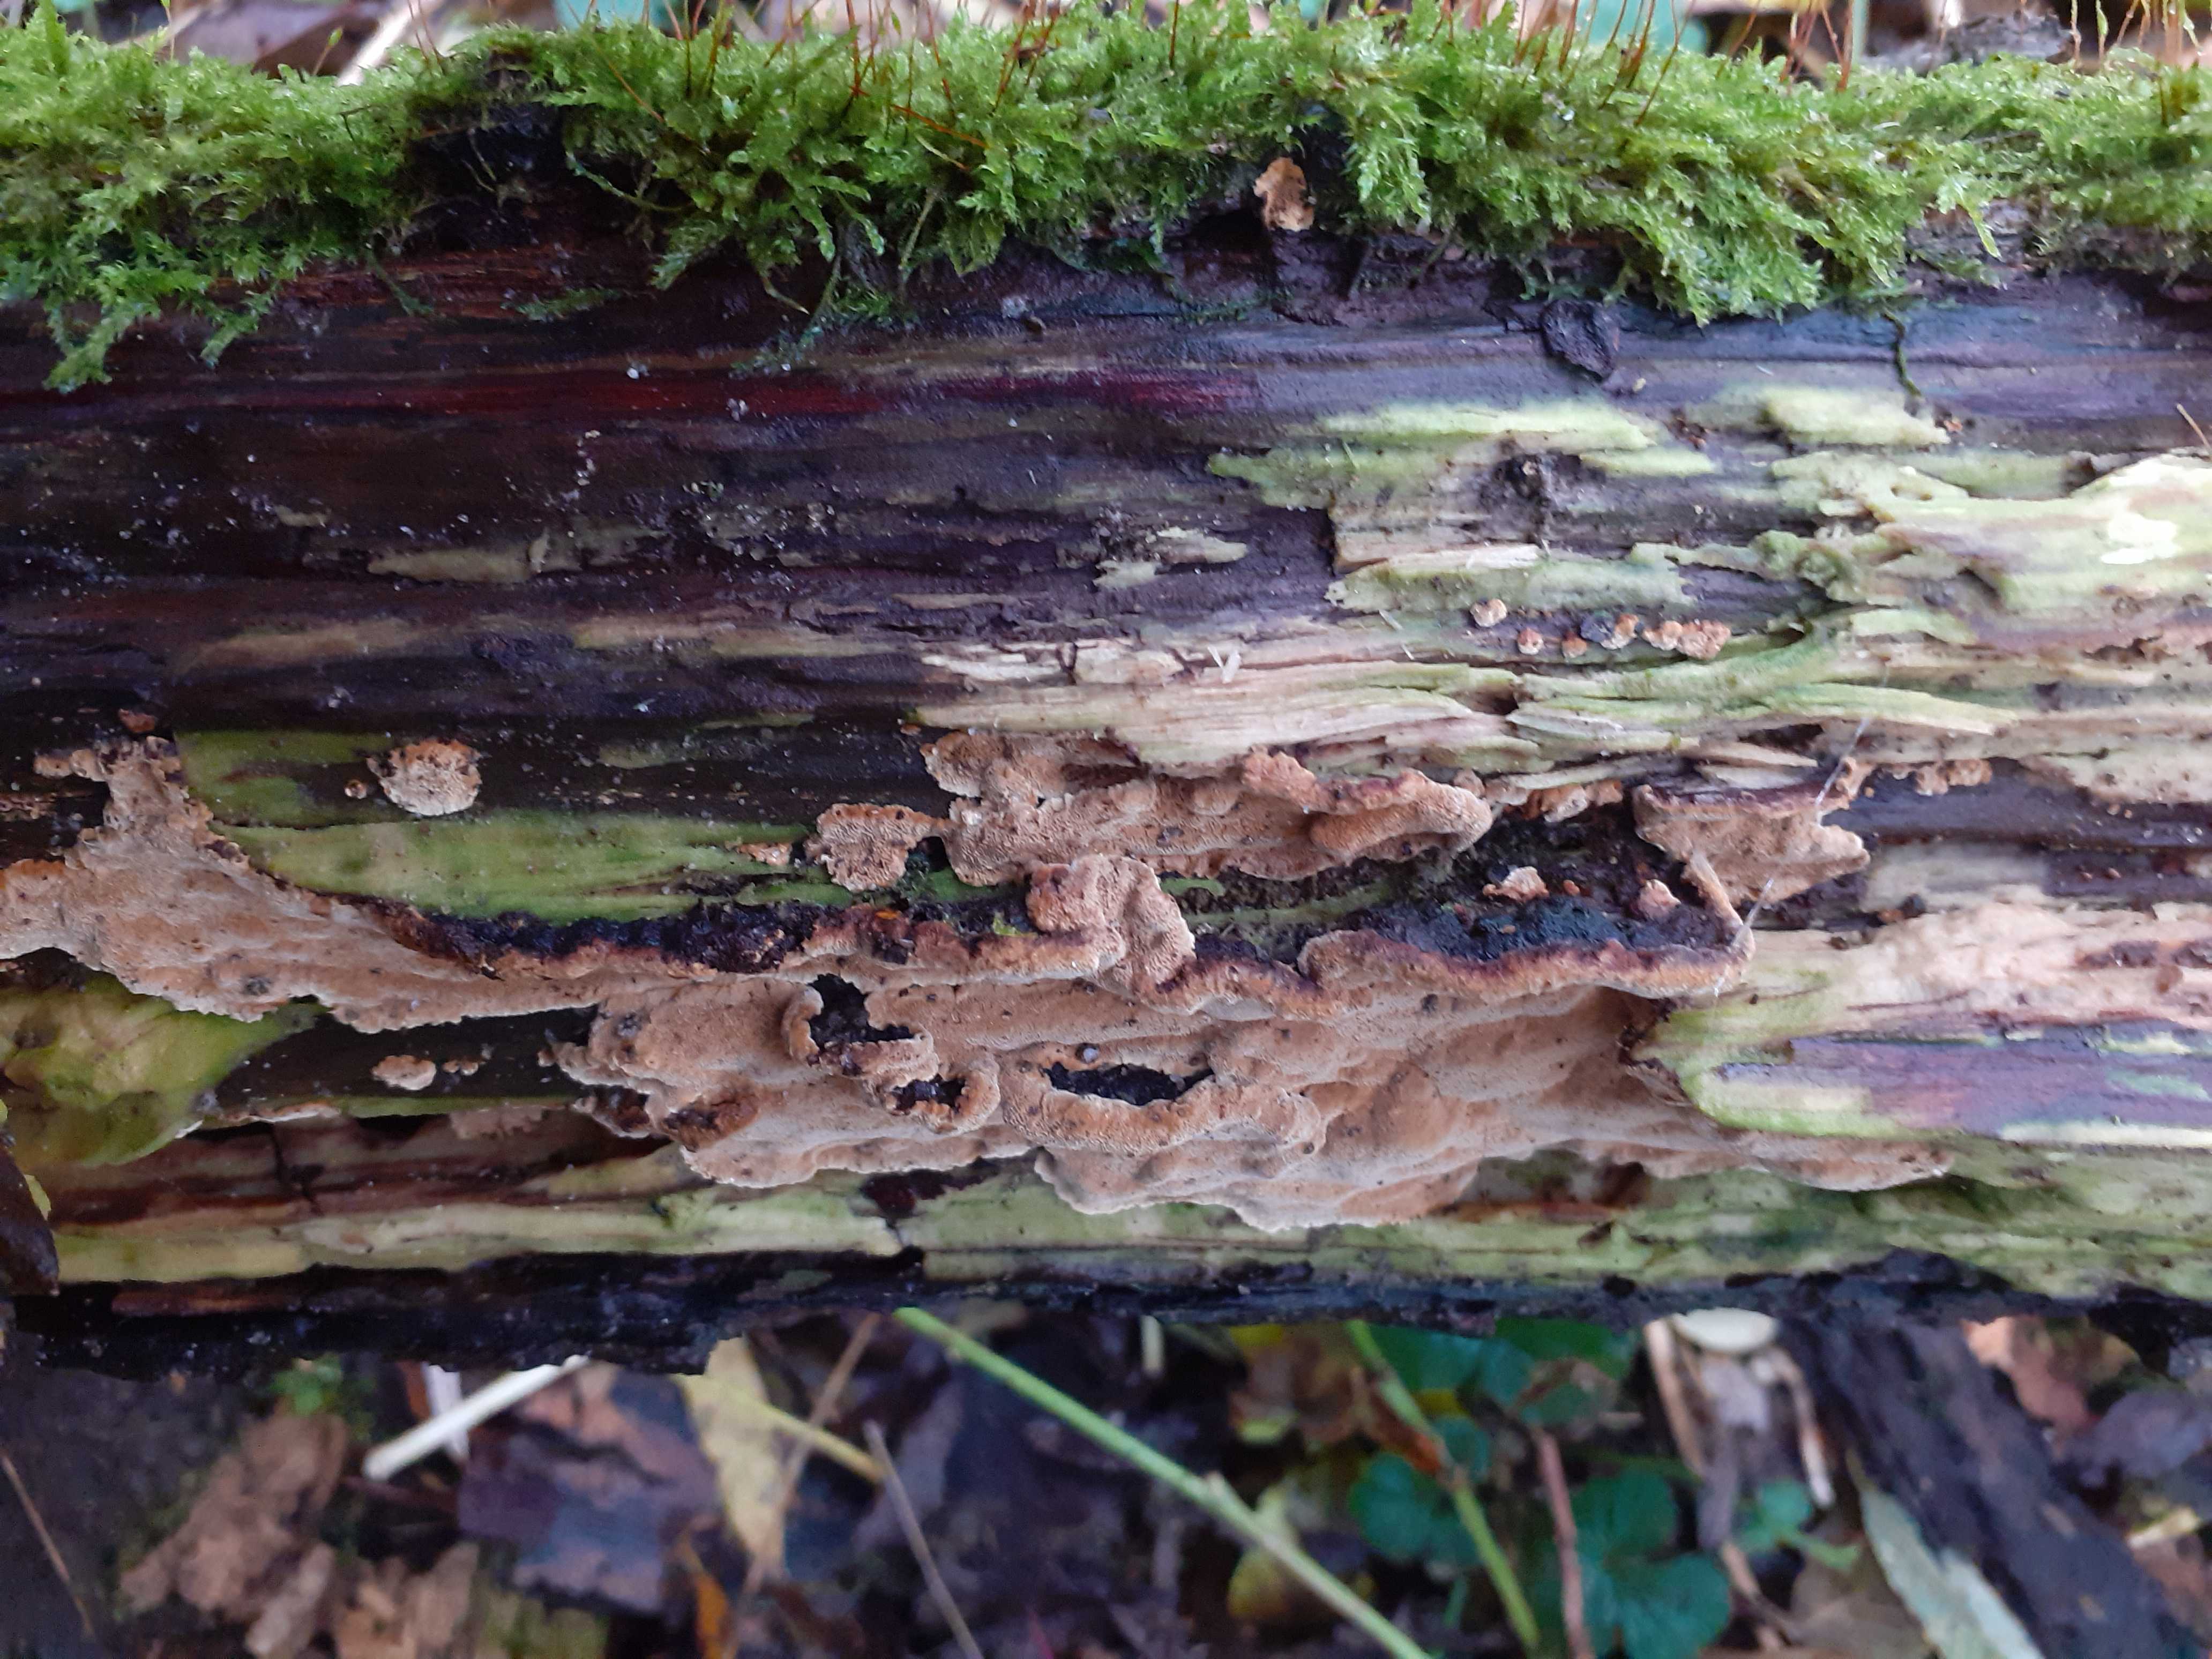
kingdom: Fungi
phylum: Basidiomycota
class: Agaricomycetes
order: Hymenochaetales
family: Hymenochaetaceae
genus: Phellinopsis
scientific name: Phellinopsis conchata
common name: pile-ildporesvamp
